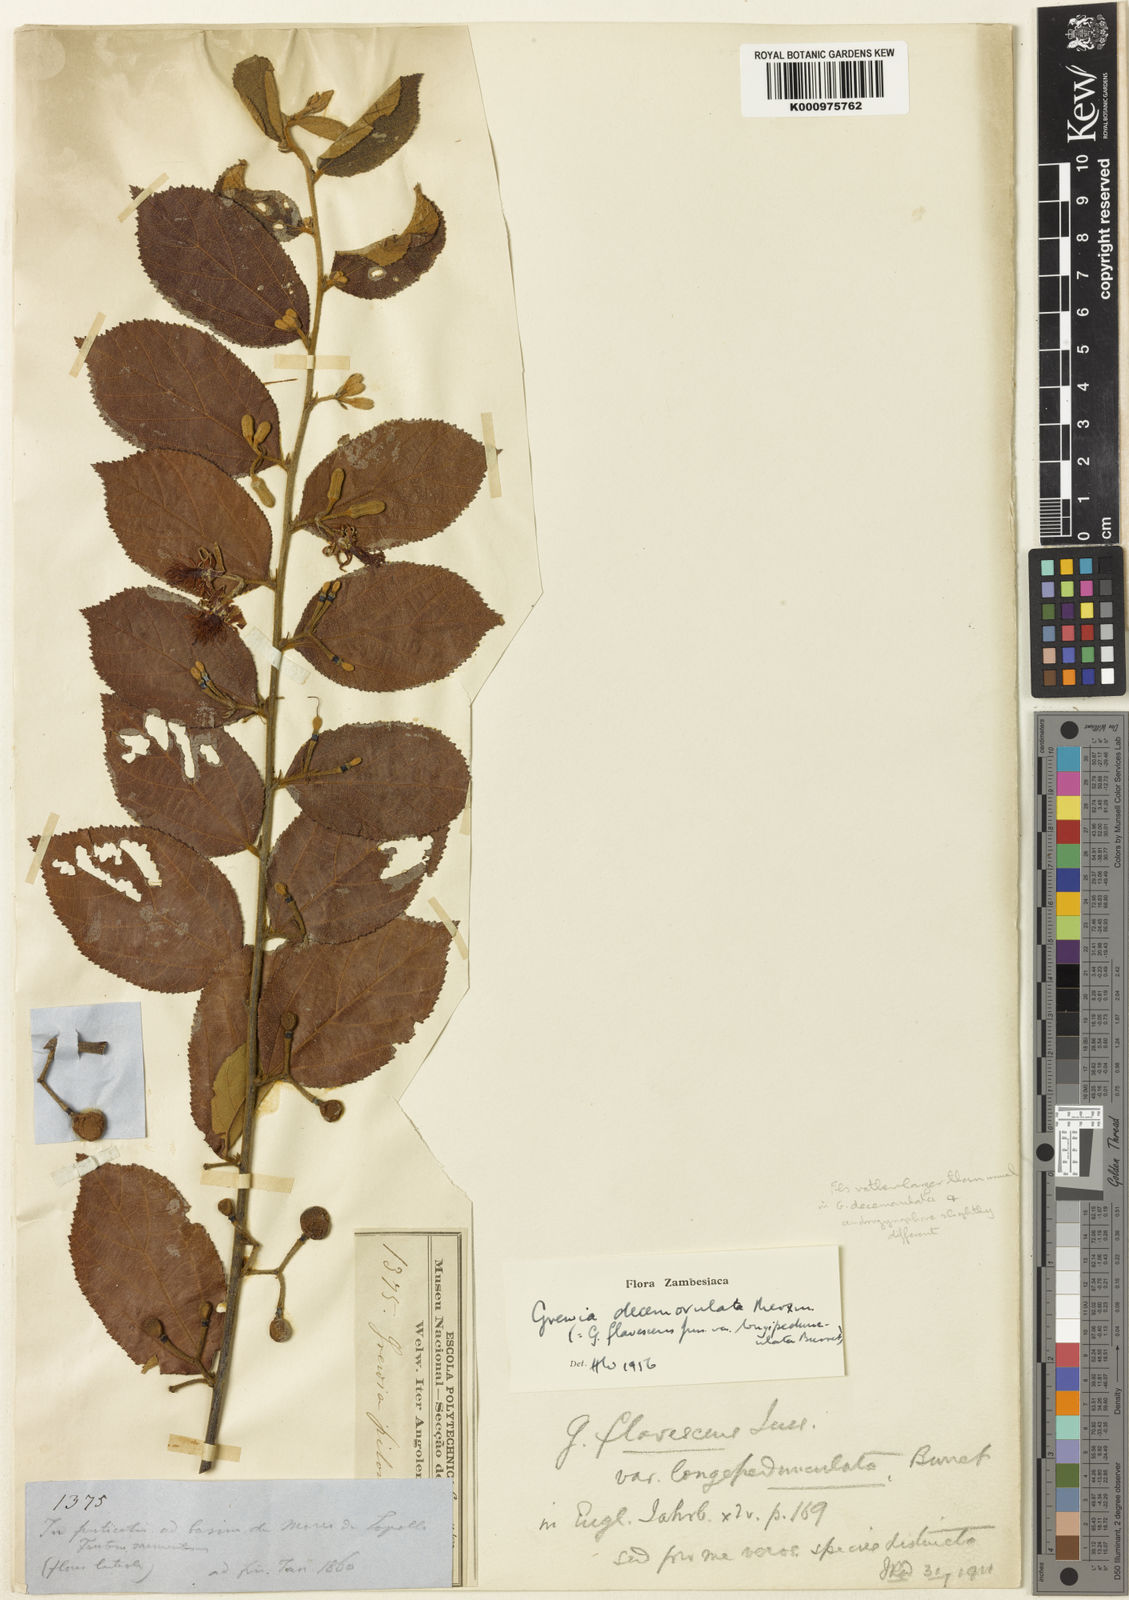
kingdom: Plantae
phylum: Tracheophyta
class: Magnoliopsida
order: Malvales
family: Malvaceae
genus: Grewia
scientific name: Grewia decemovulata
